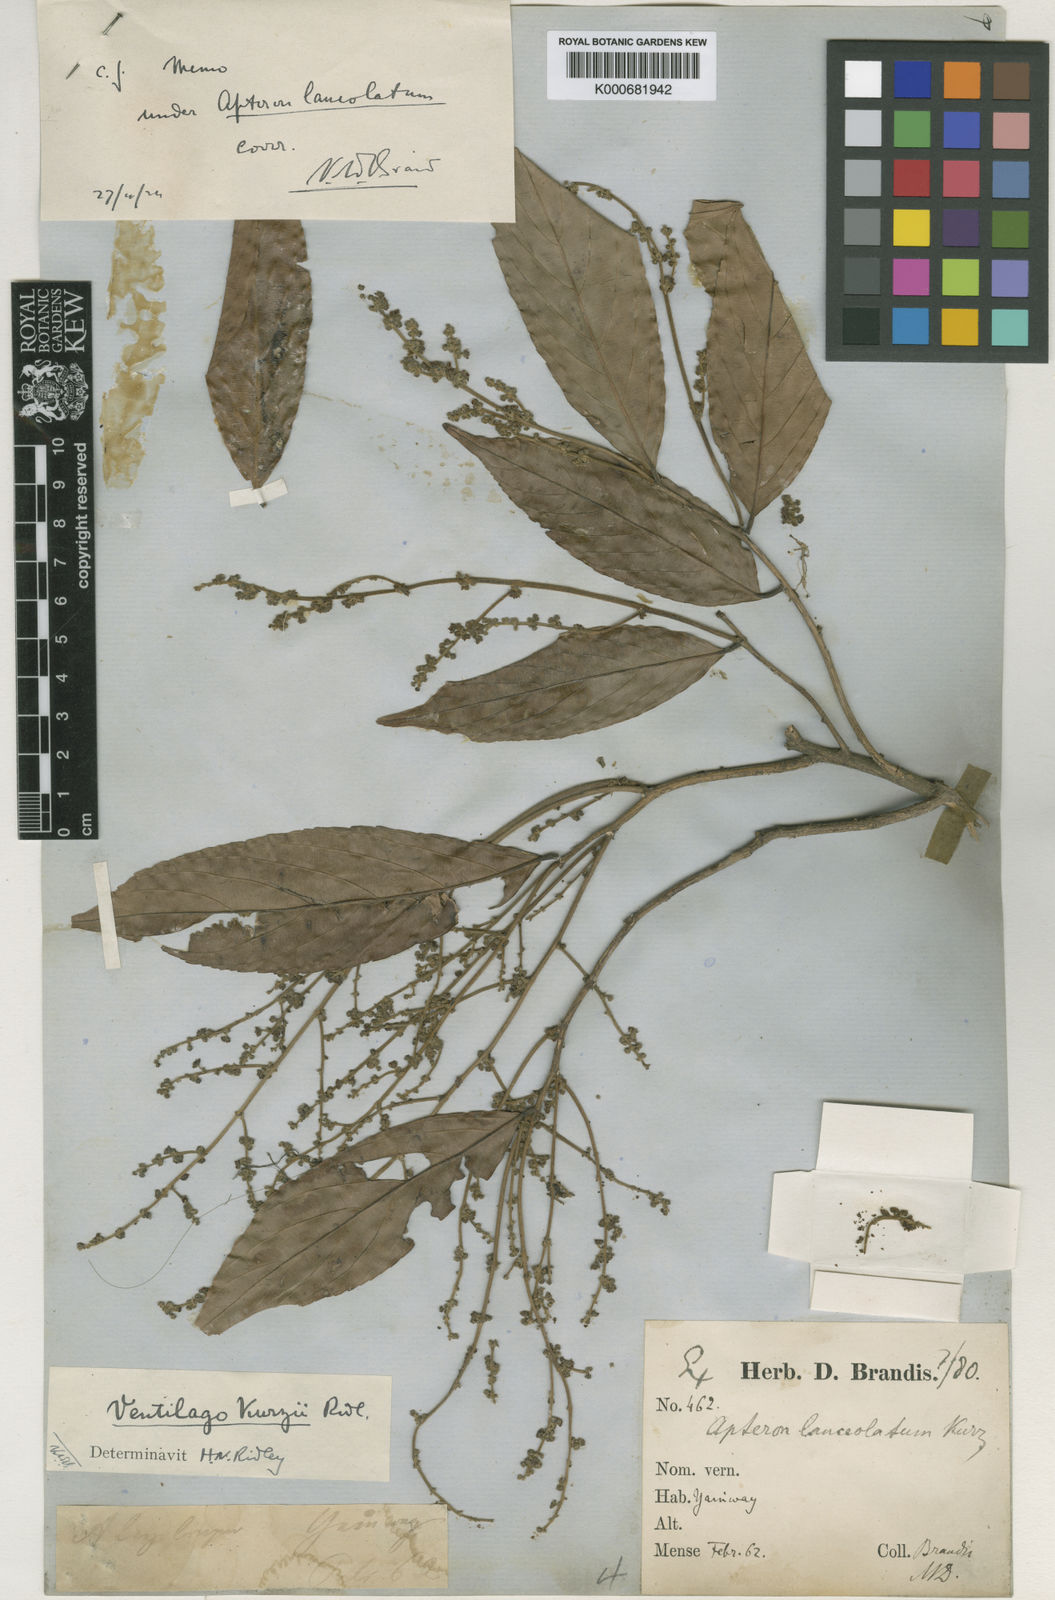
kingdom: Plantae
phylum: Tracheophyta
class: Magnoliopsida
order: Rosales
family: Rhamnaceae
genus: Ventilago
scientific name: Ventilago kurzii
